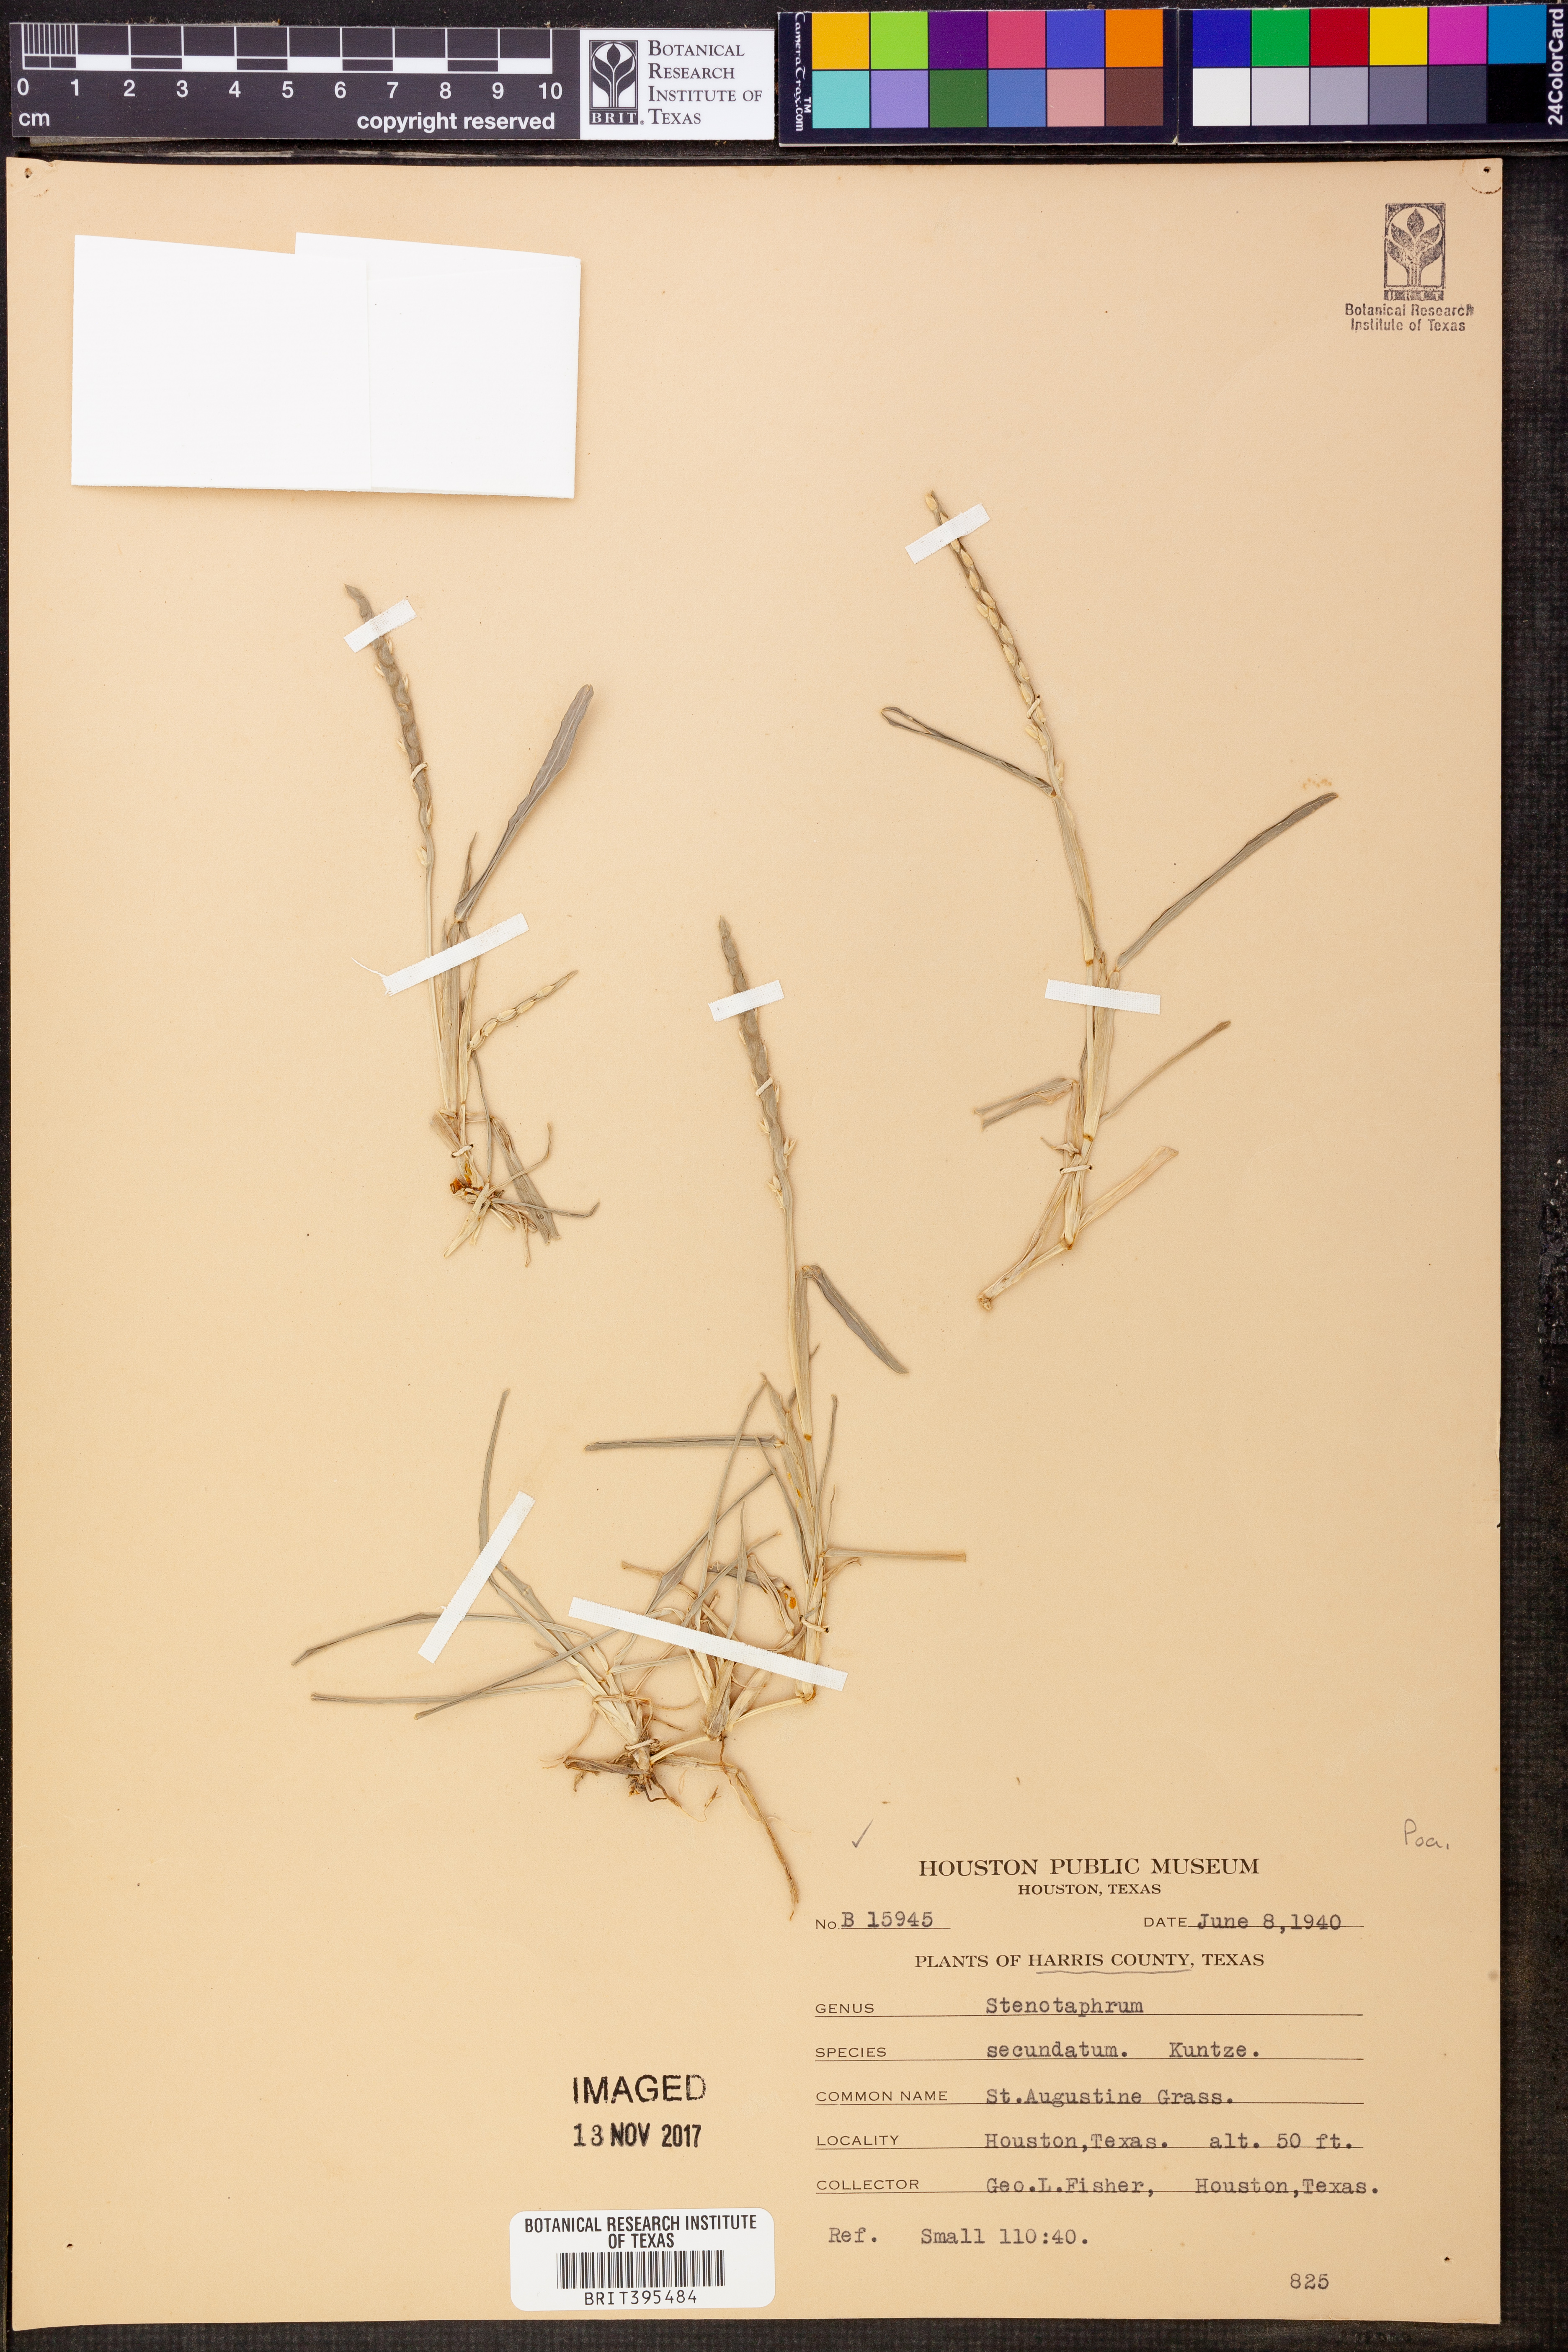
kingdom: Plantae
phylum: Tracheophyta
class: Liliopsida
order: Poales
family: Poaceae
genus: Stenotaphrum
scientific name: Stenotaphrum secundatum
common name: St. augustine grass
